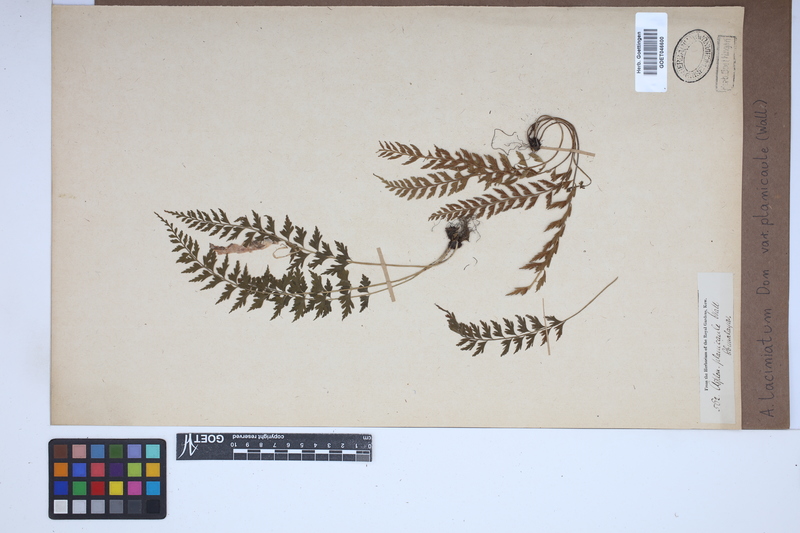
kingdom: Plantae
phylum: Tracheophyta
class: Polypodiopsida
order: Polypodiales
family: Aspleniaceae
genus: Asplenium
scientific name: Asplenium laciniatum
